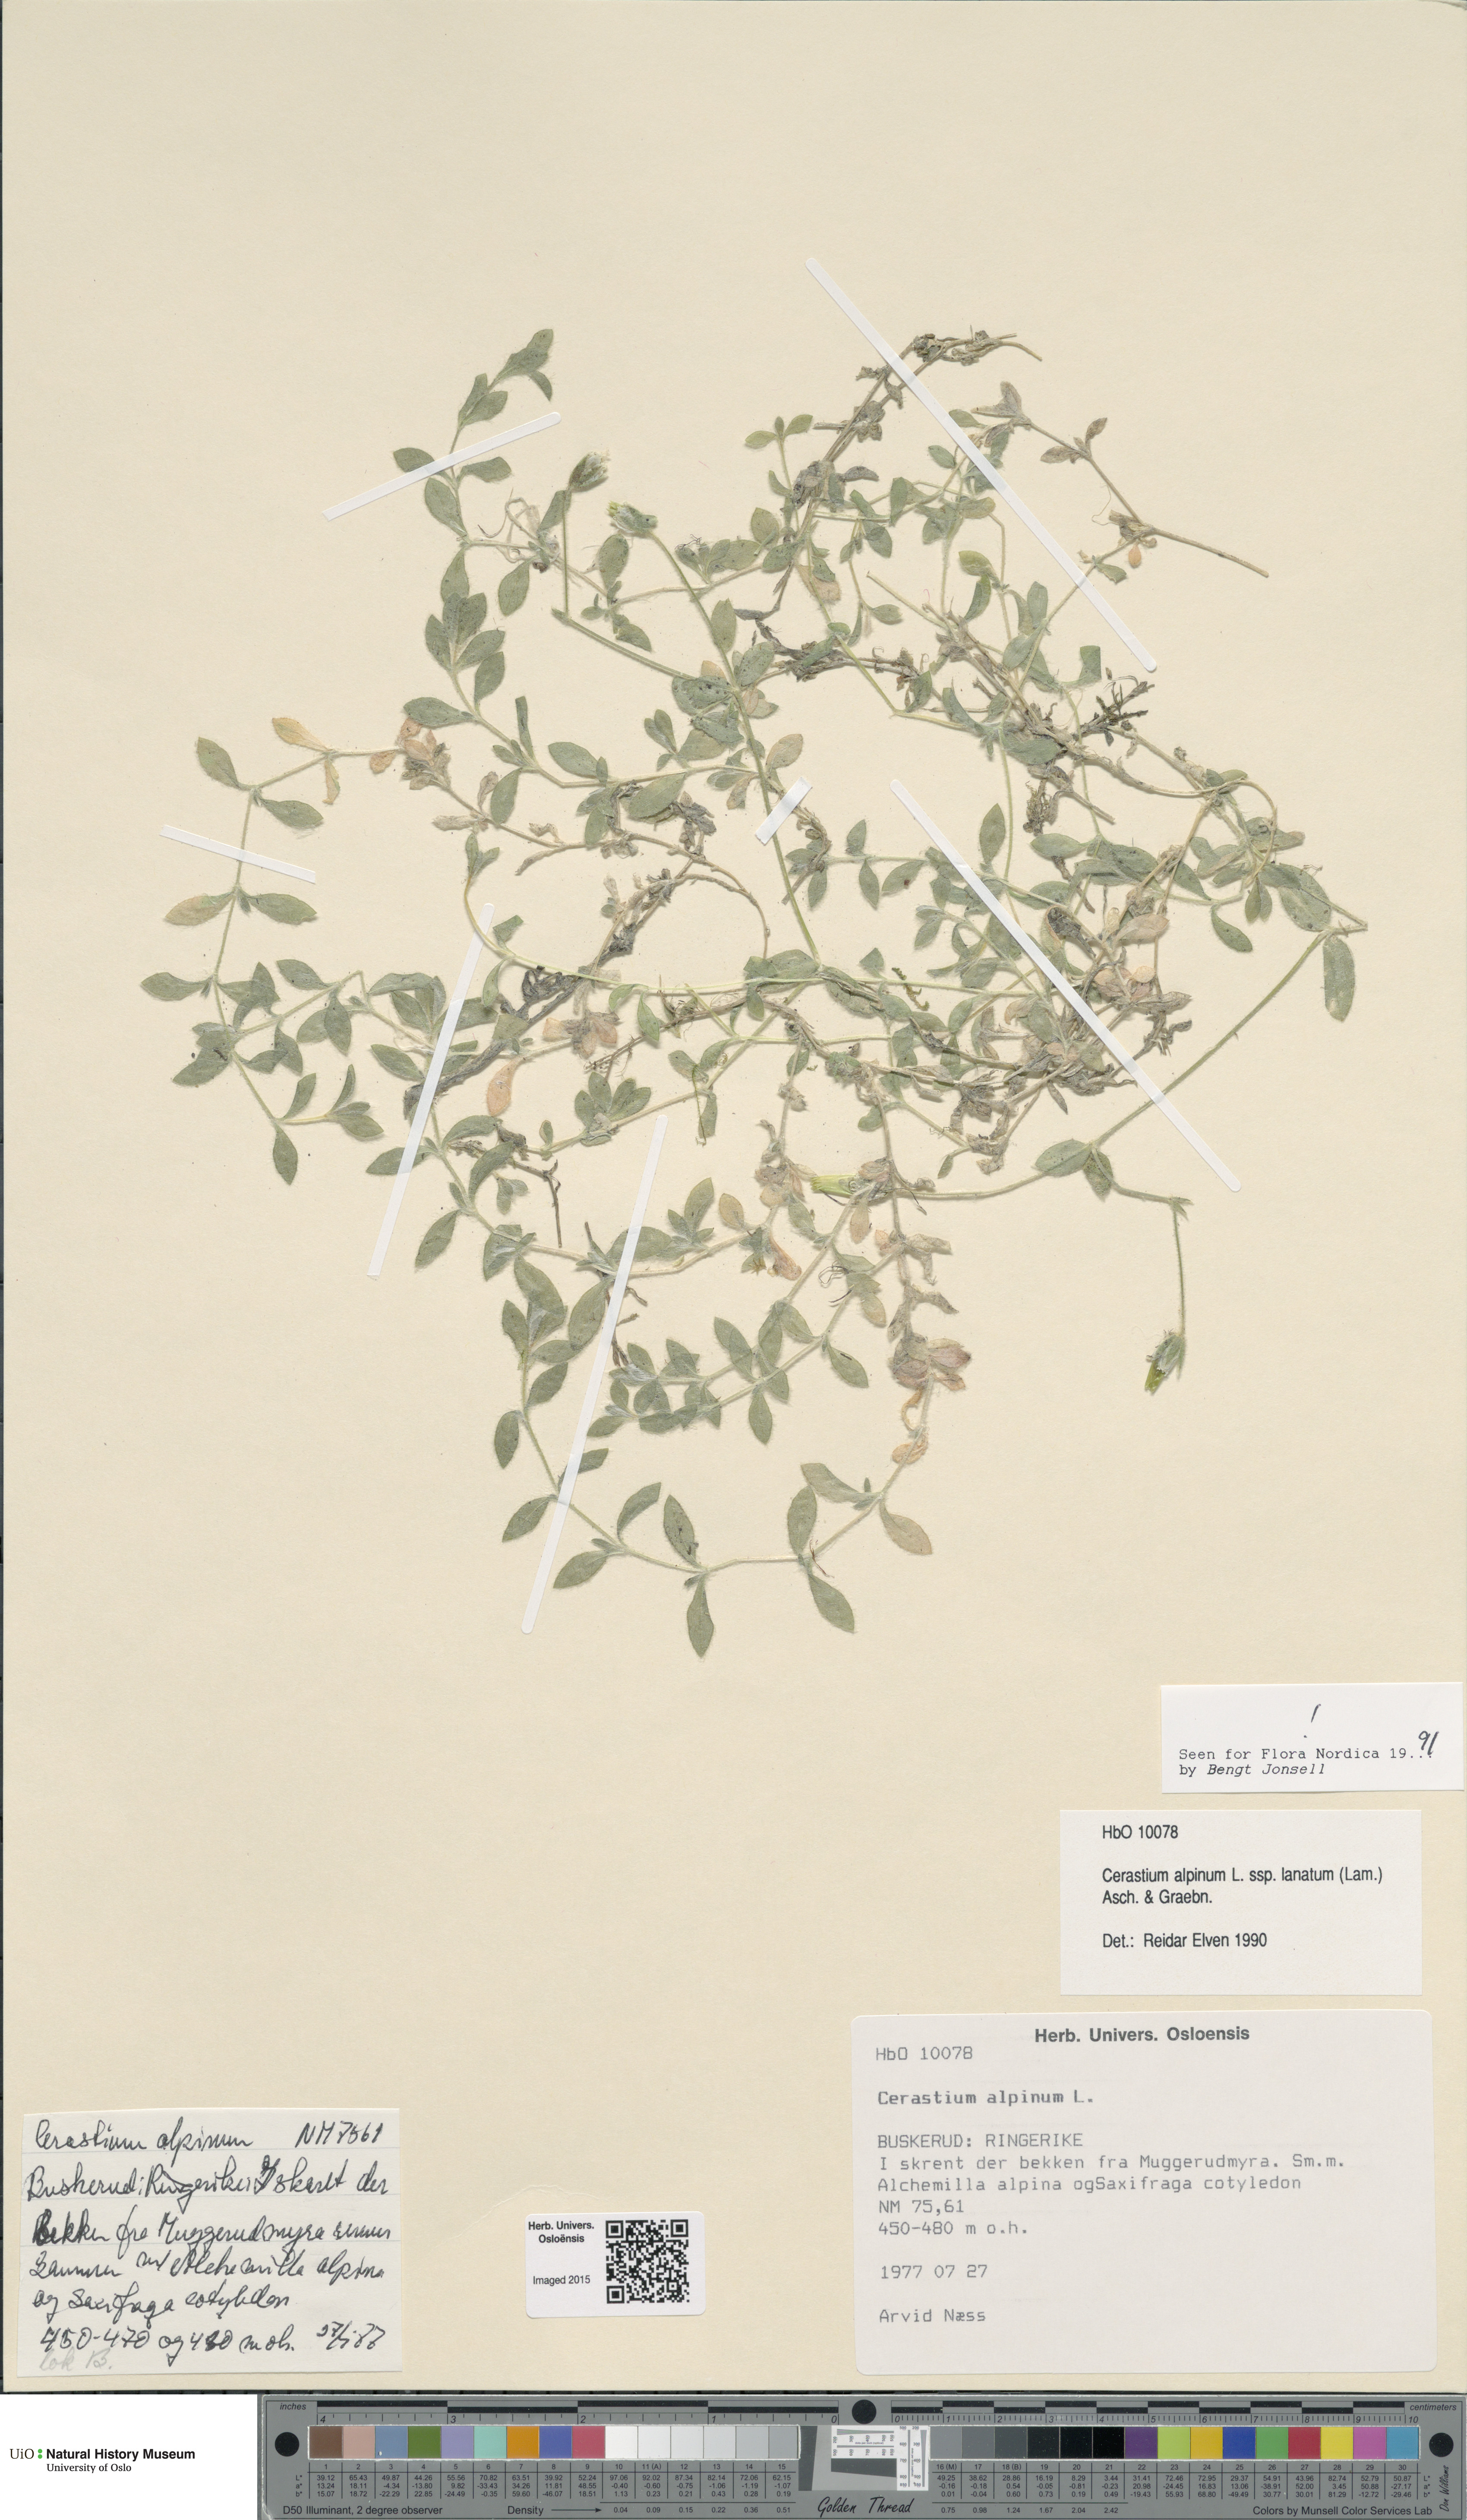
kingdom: Plantae
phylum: Tracheophyta
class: Magnoliopsida
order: Caryophyllales
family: Caryophyllaceae
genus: Cerastium
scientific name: Cerastium alpinum
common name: Alpine mouse-ear
